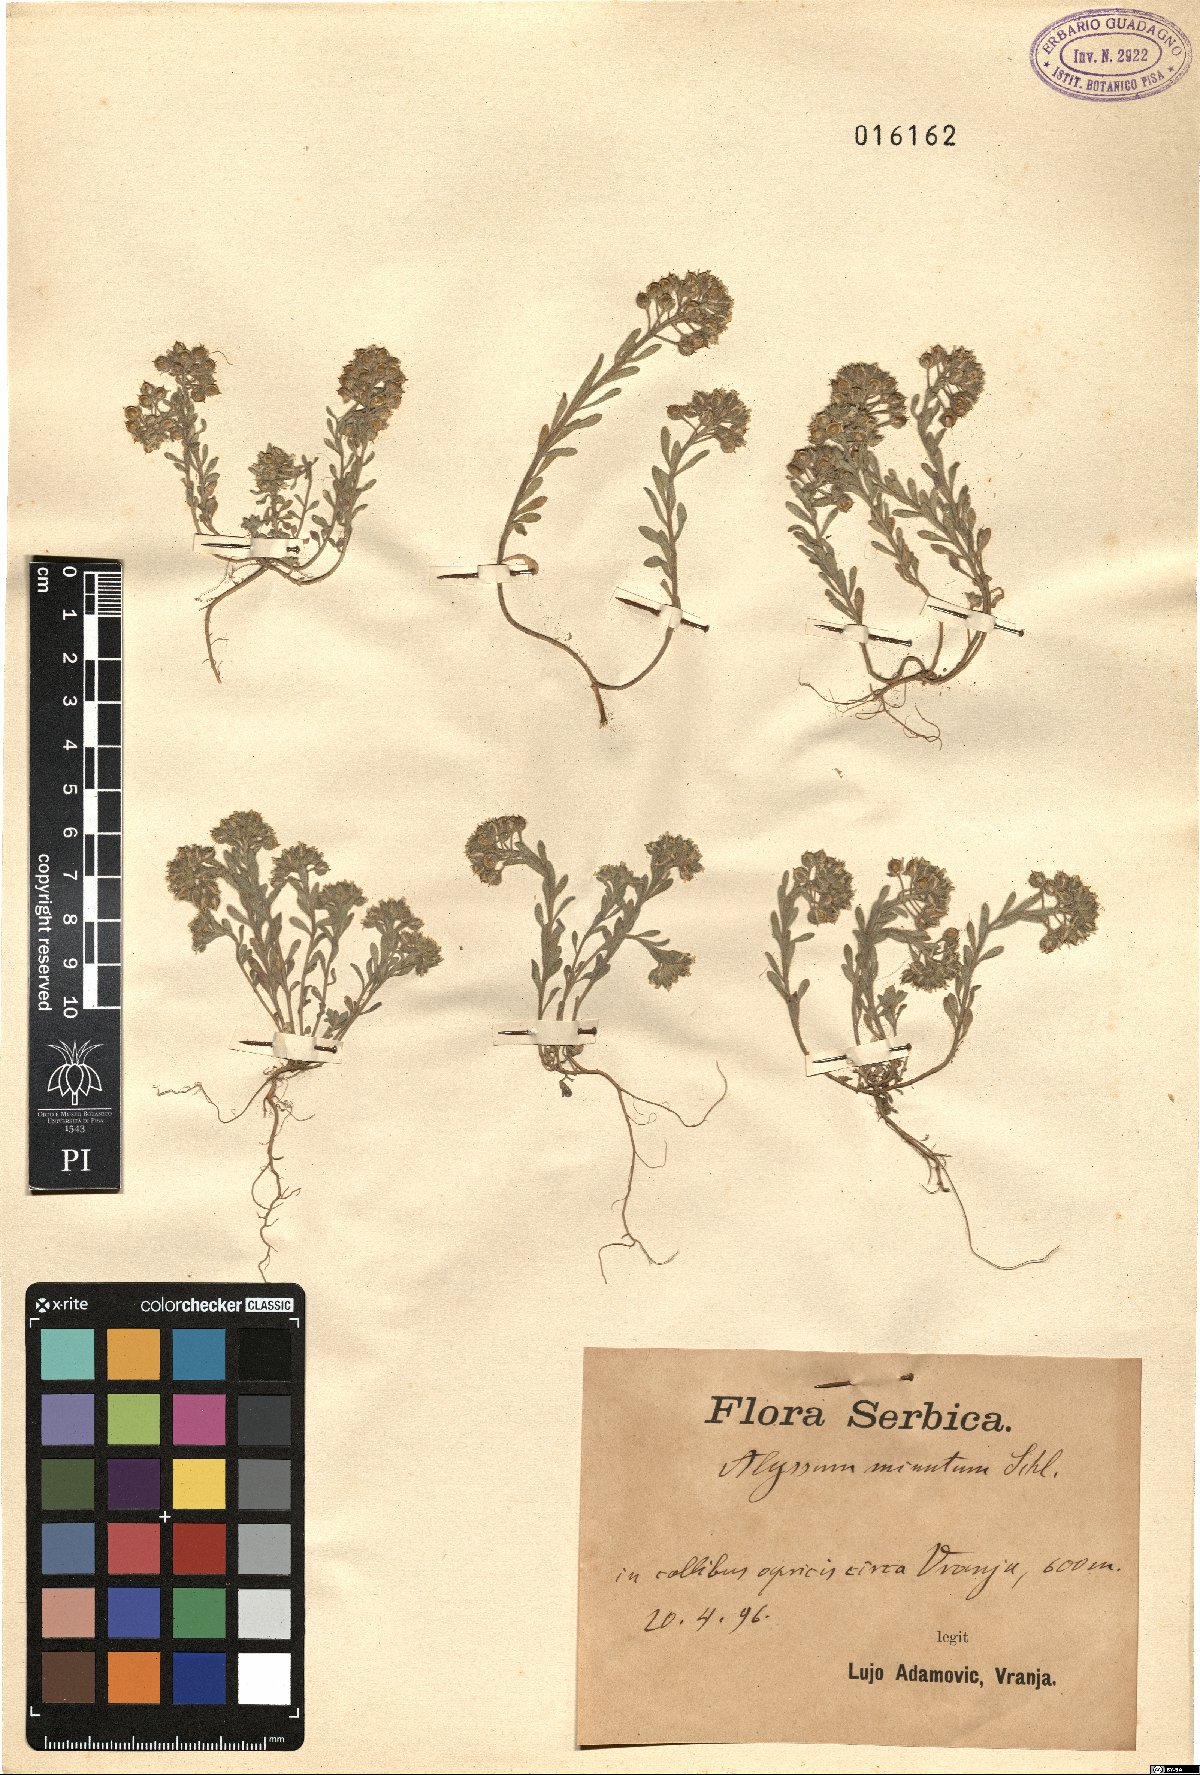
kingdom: Plantae
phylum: Tracheophyta
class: Magnoliopsida
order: Brassicales
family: Brassicaceae
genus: Alyssum
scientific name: Alyssum minutum
